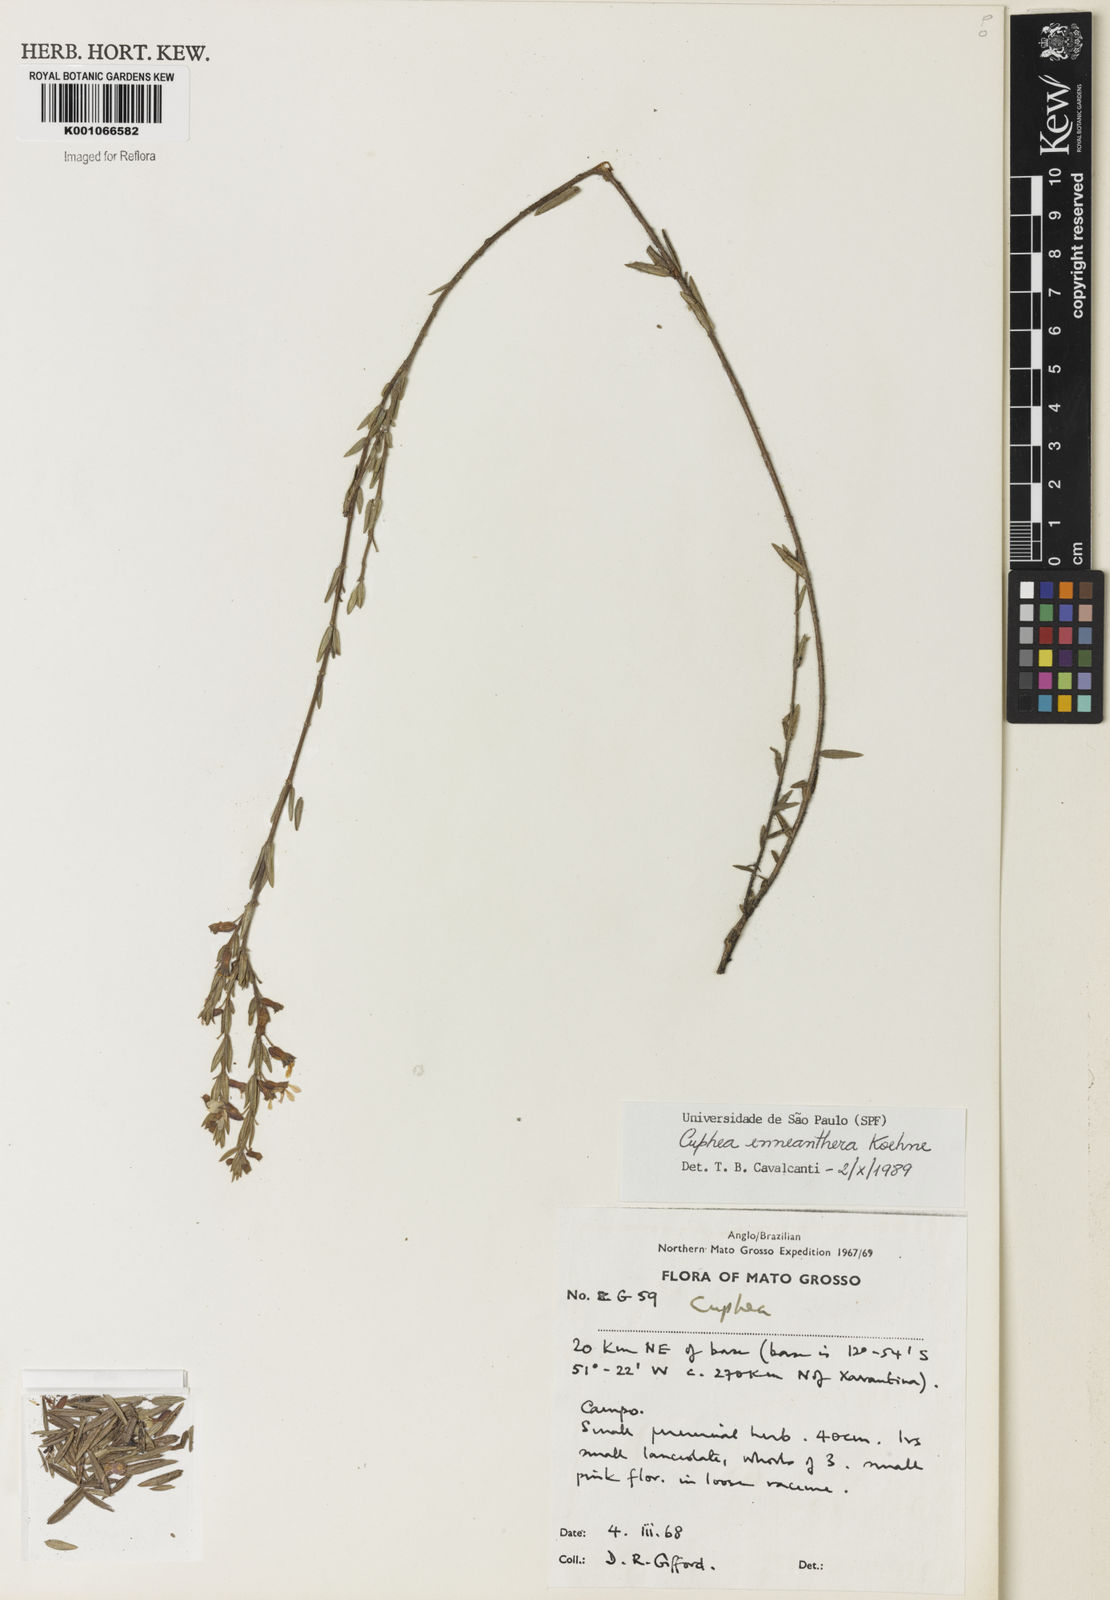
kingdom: Plantae
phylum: Tracheophyta
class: Magnoliopsida
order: Myrtales
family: Lythraceae
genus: Cuphea
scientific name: Cuphea retrorsicapilla
